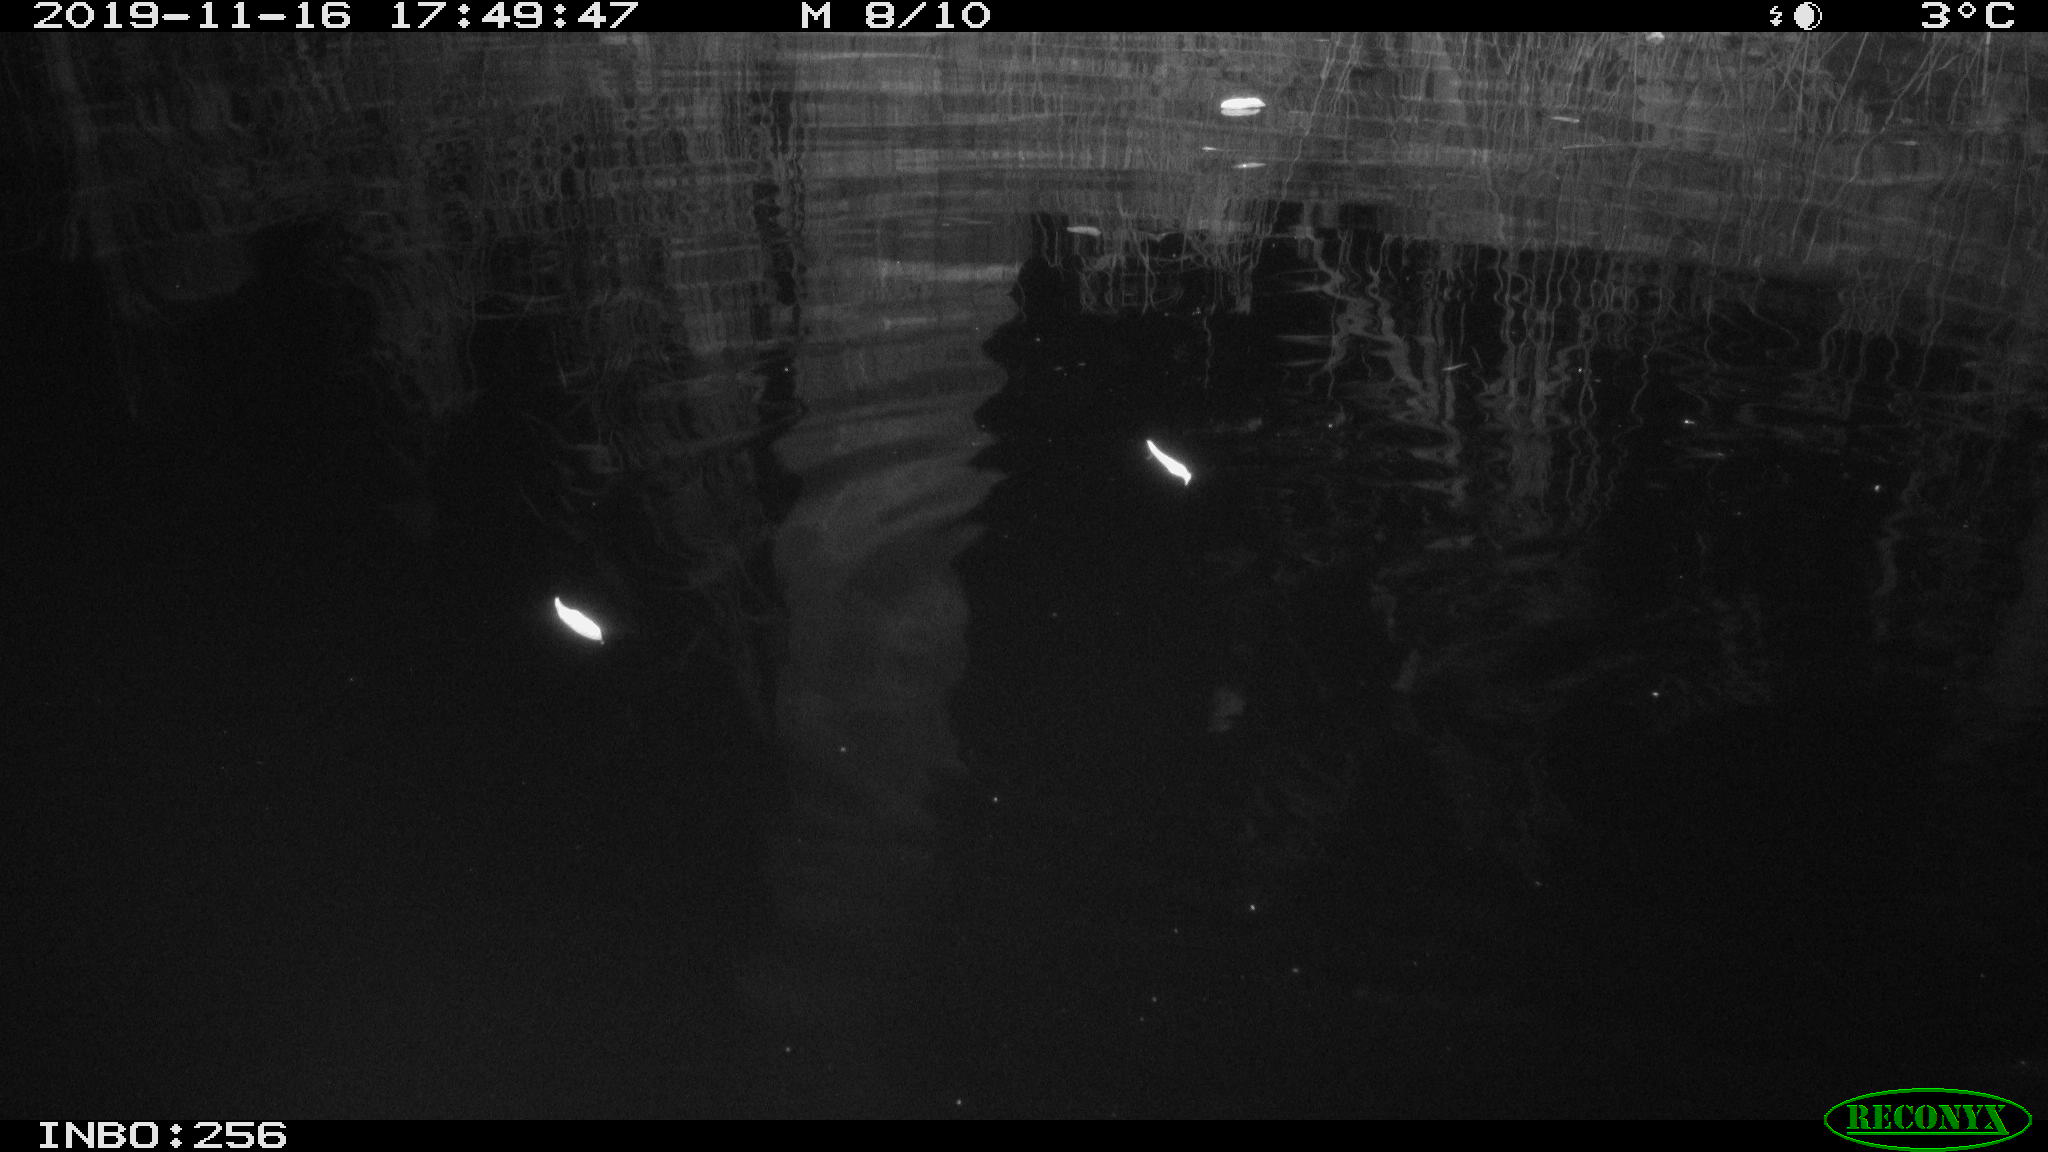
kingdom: Animalia
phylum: Chordata
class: Aves
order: Anseriformes
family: Anatidae
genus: Anas
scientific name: Anas platyrhynchos
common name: Mallard
